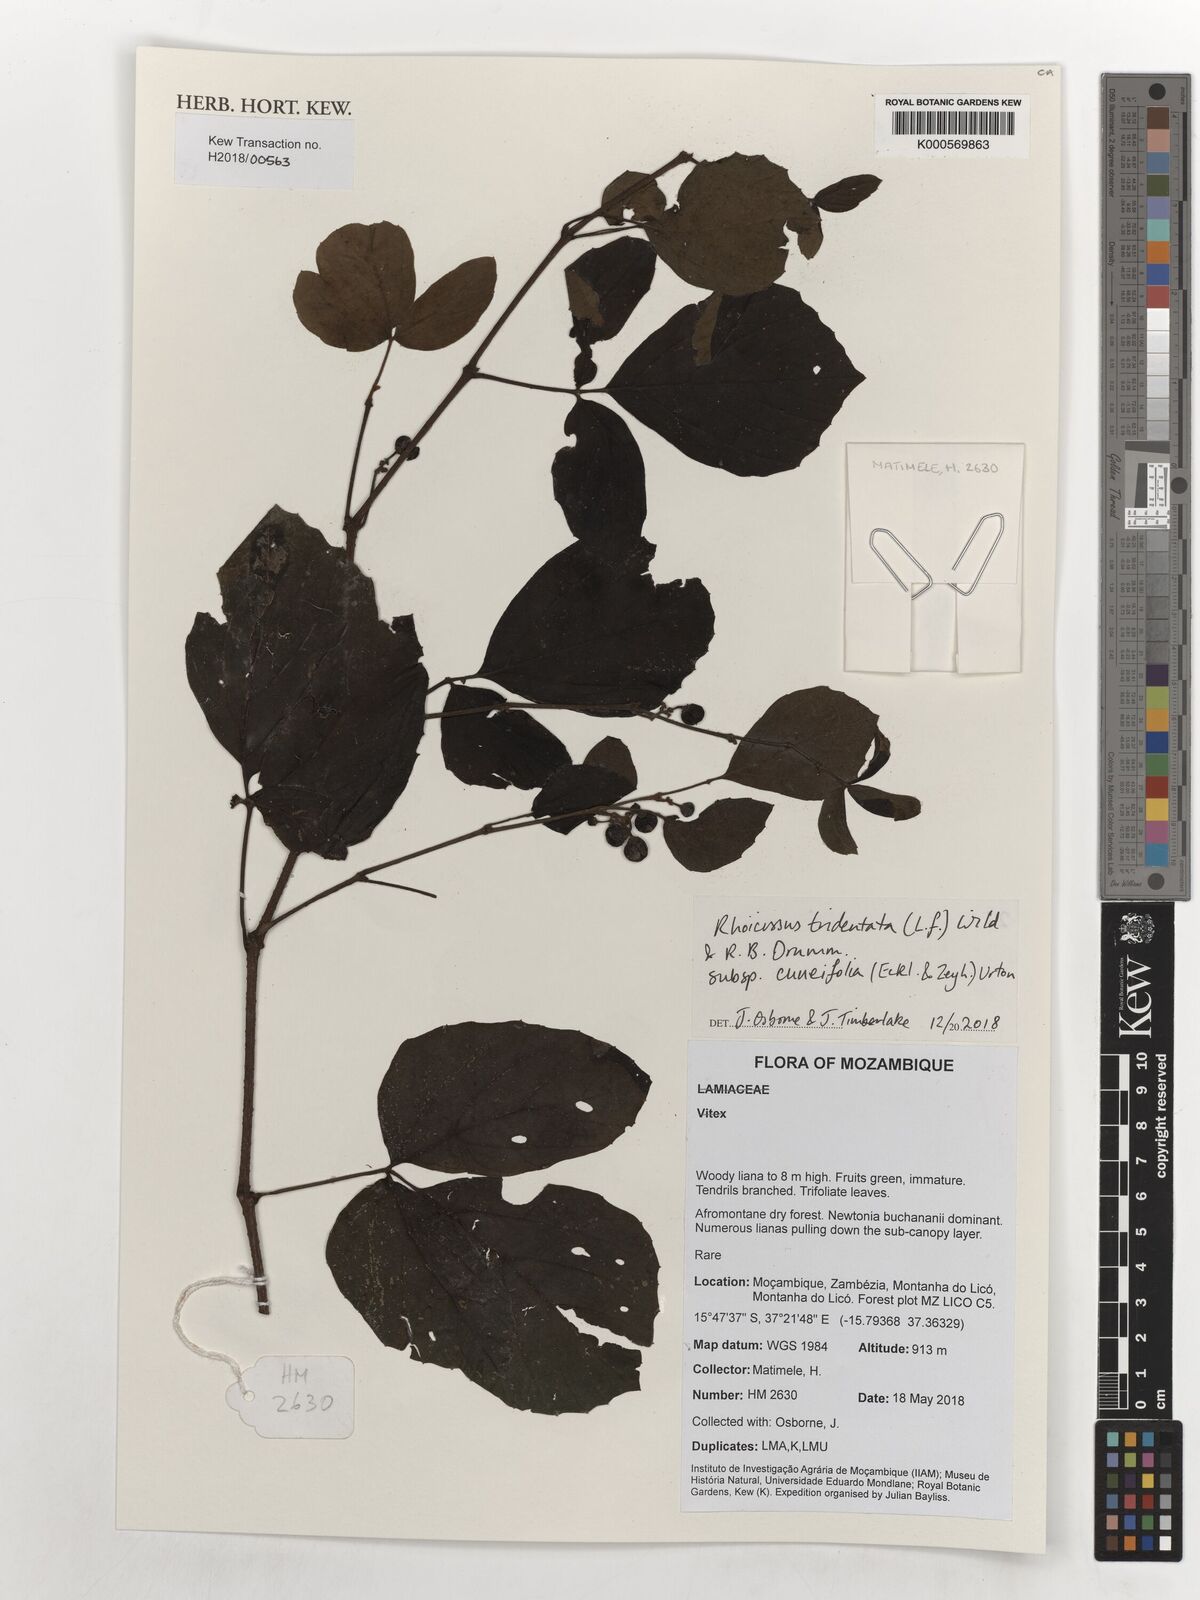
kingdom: Plantae
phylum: Tracheophyta
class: Magnoliopsida
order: Vitales
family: Vitaceae
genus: Rhoicissus
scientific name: Rhoicissus tridentata
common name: Common forest grape
